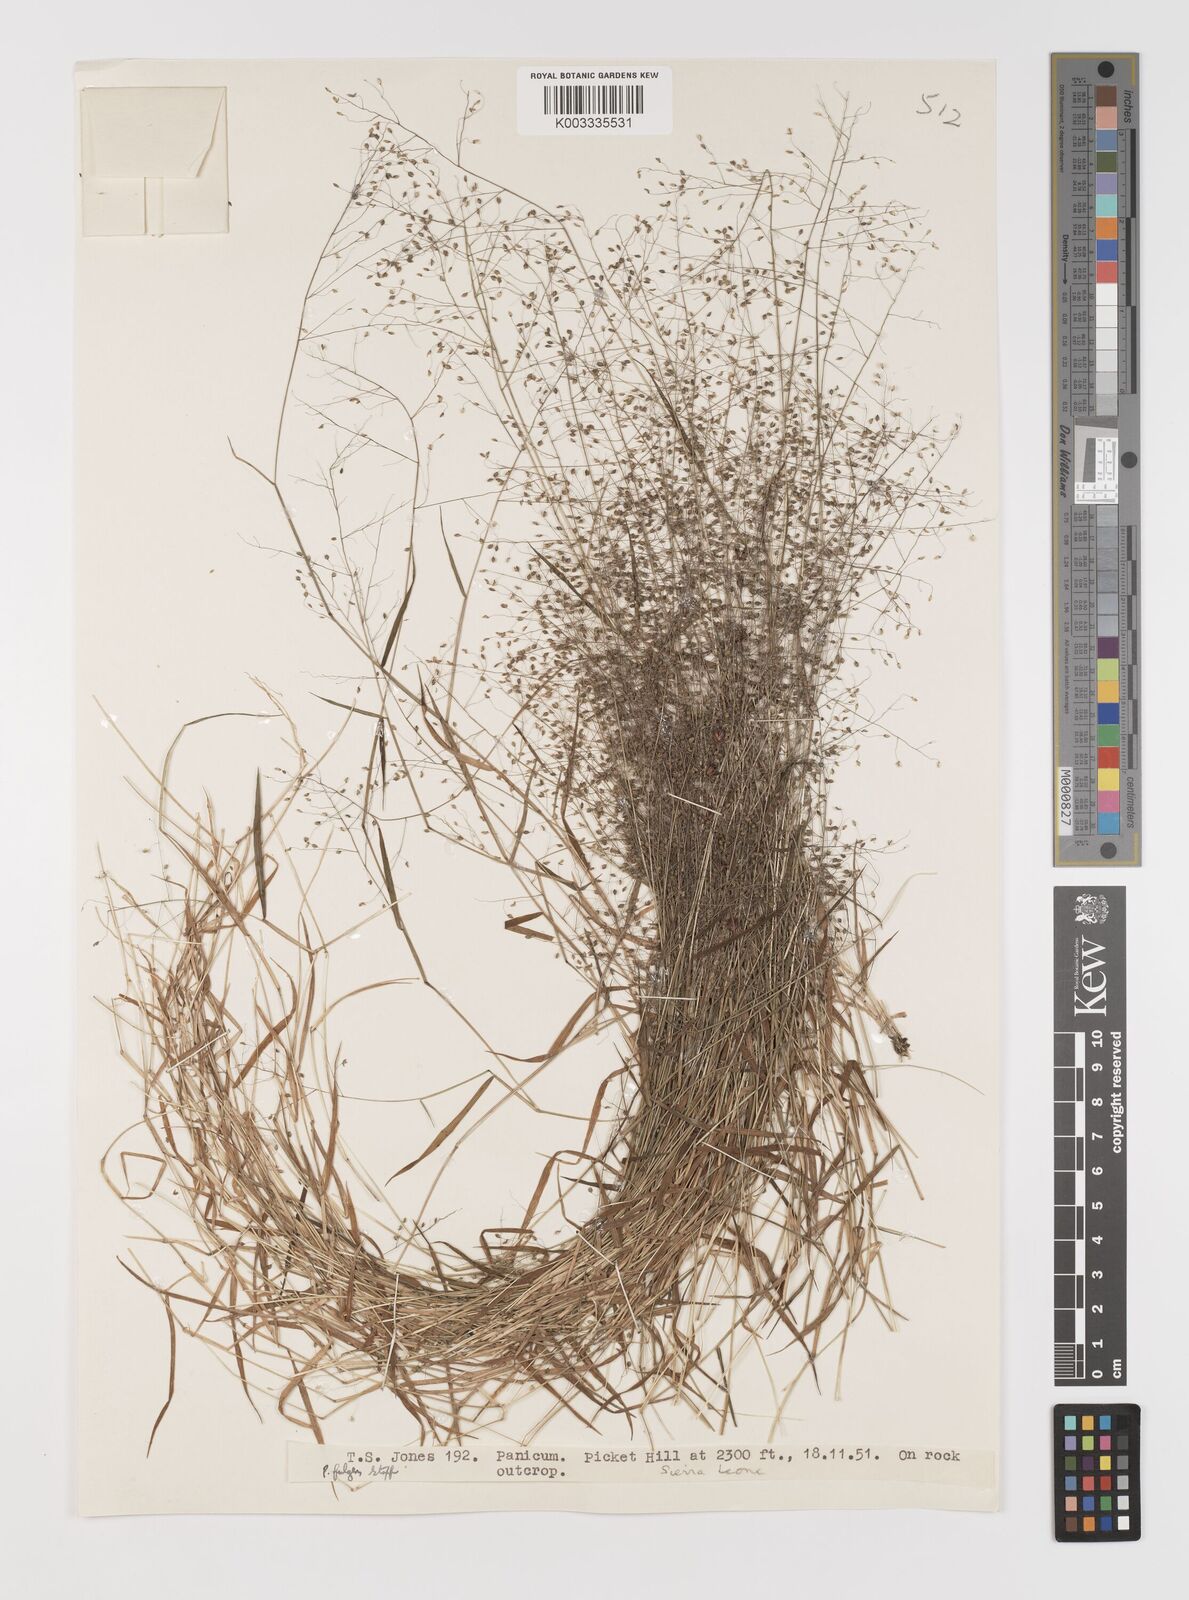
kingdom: Plantae
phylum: Tracheophyta
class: Liliopsida
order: Poales
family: Poaceae
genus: Trichanthecium
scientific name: Trichanthecium tenellum
